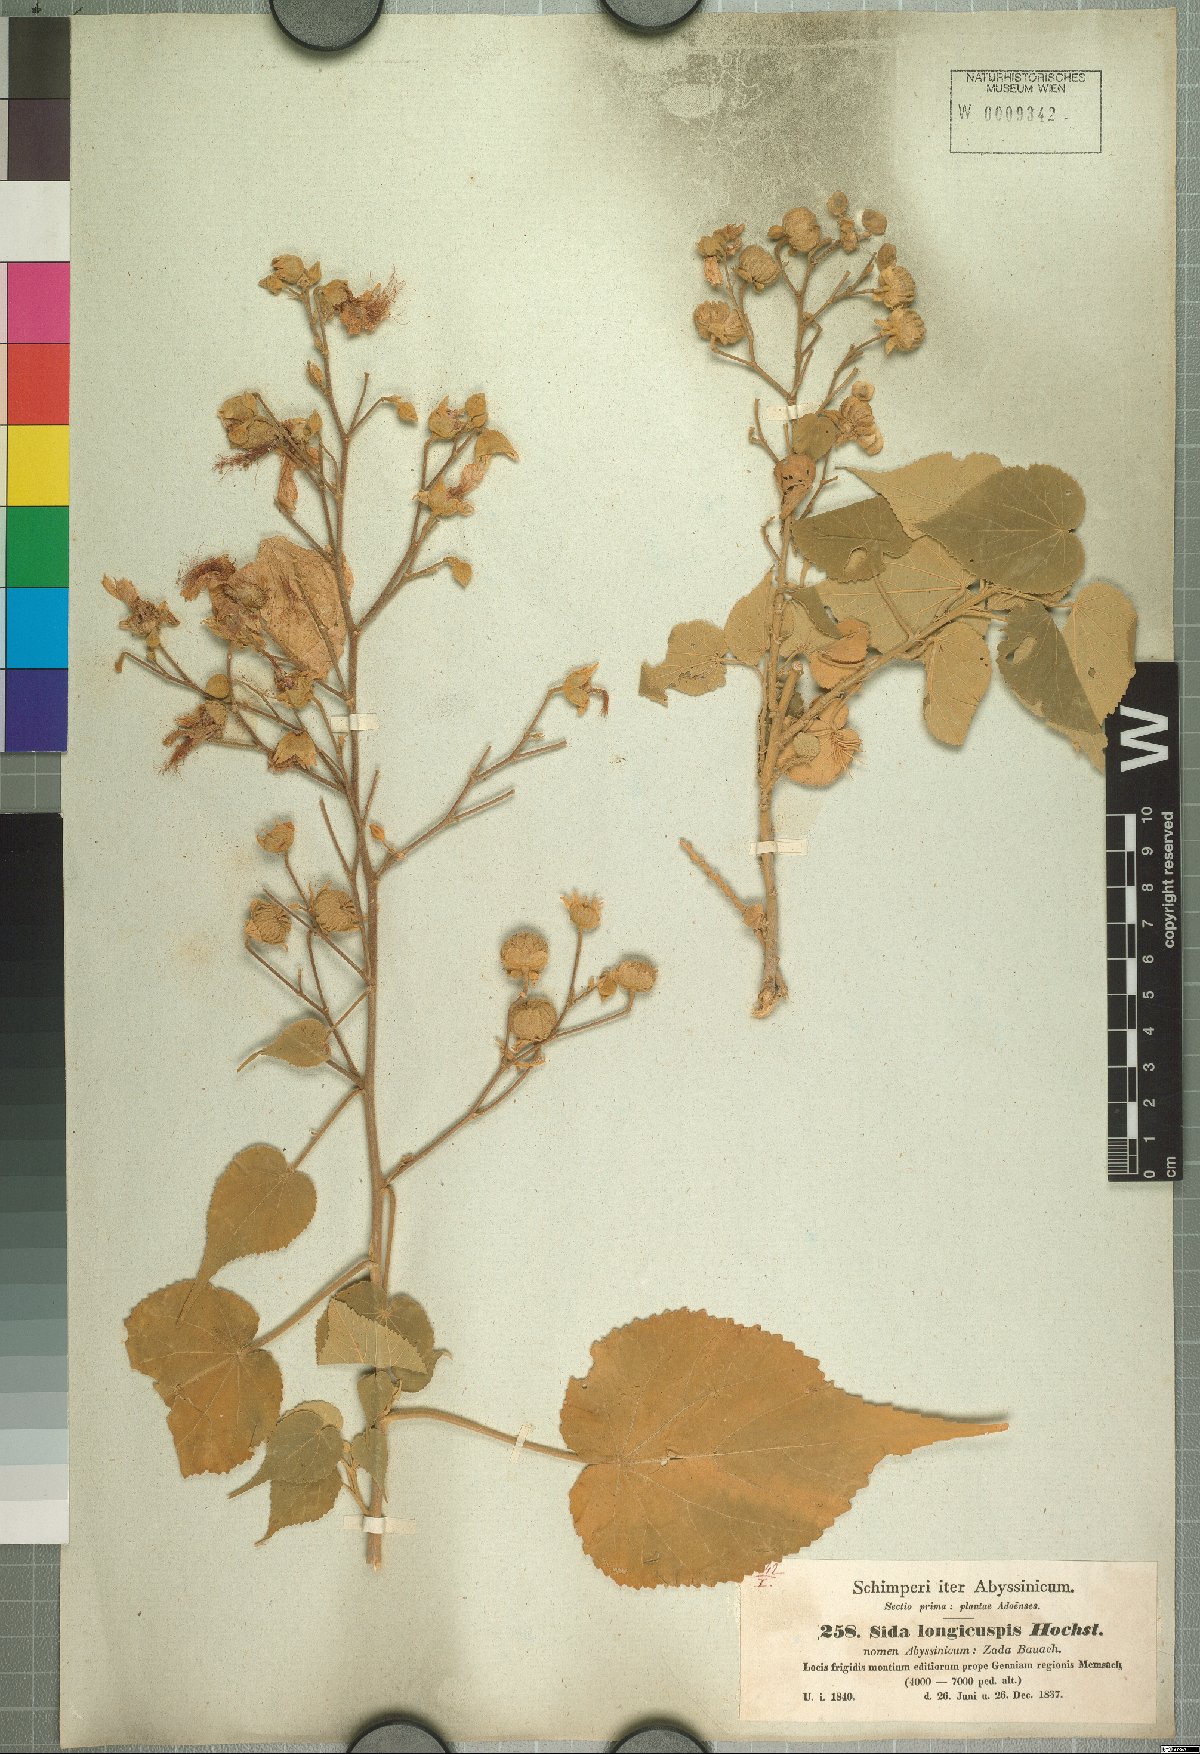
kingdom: Plantae
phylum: Tracheophyta
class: Magnoliopsida
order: Malvales
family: Malvaceae
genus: Abutilon
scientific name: Abutilon longicuspe
